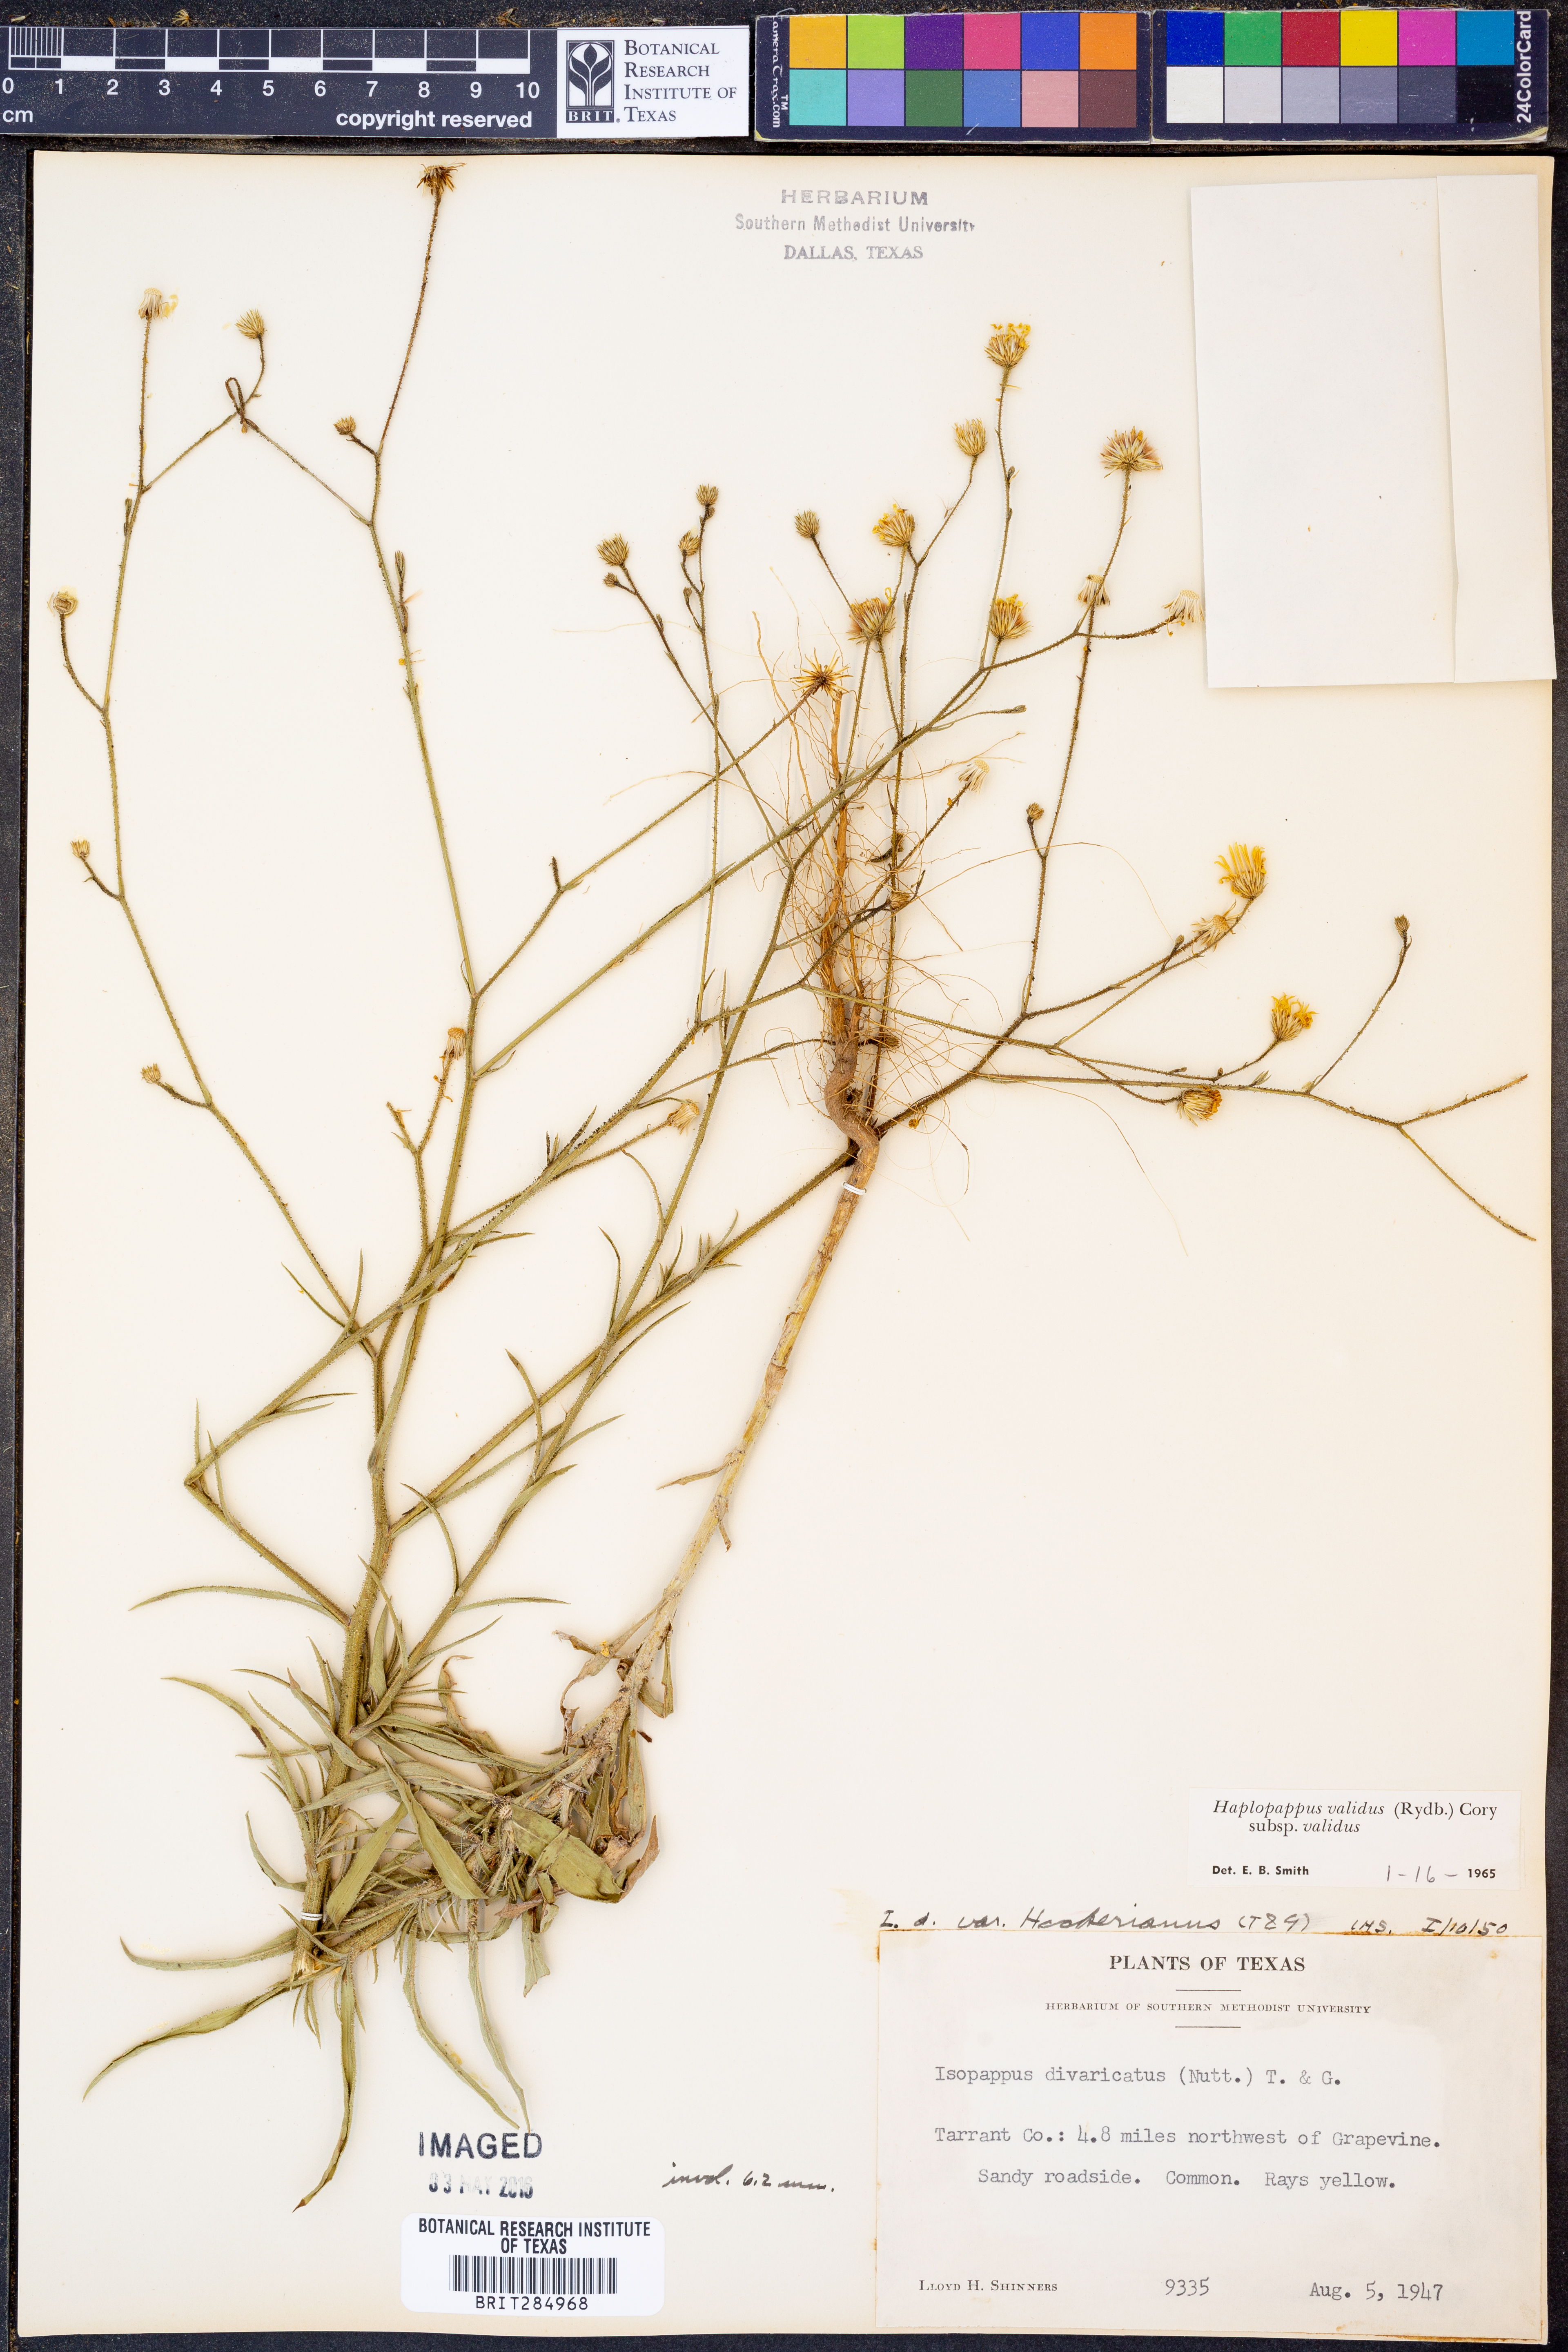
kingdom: Plantae
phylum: Tracheophyta
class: Magnoliopsida
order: Asterales
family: Asteraceae
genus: Croptilon
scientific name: Croptilon hookerianum
